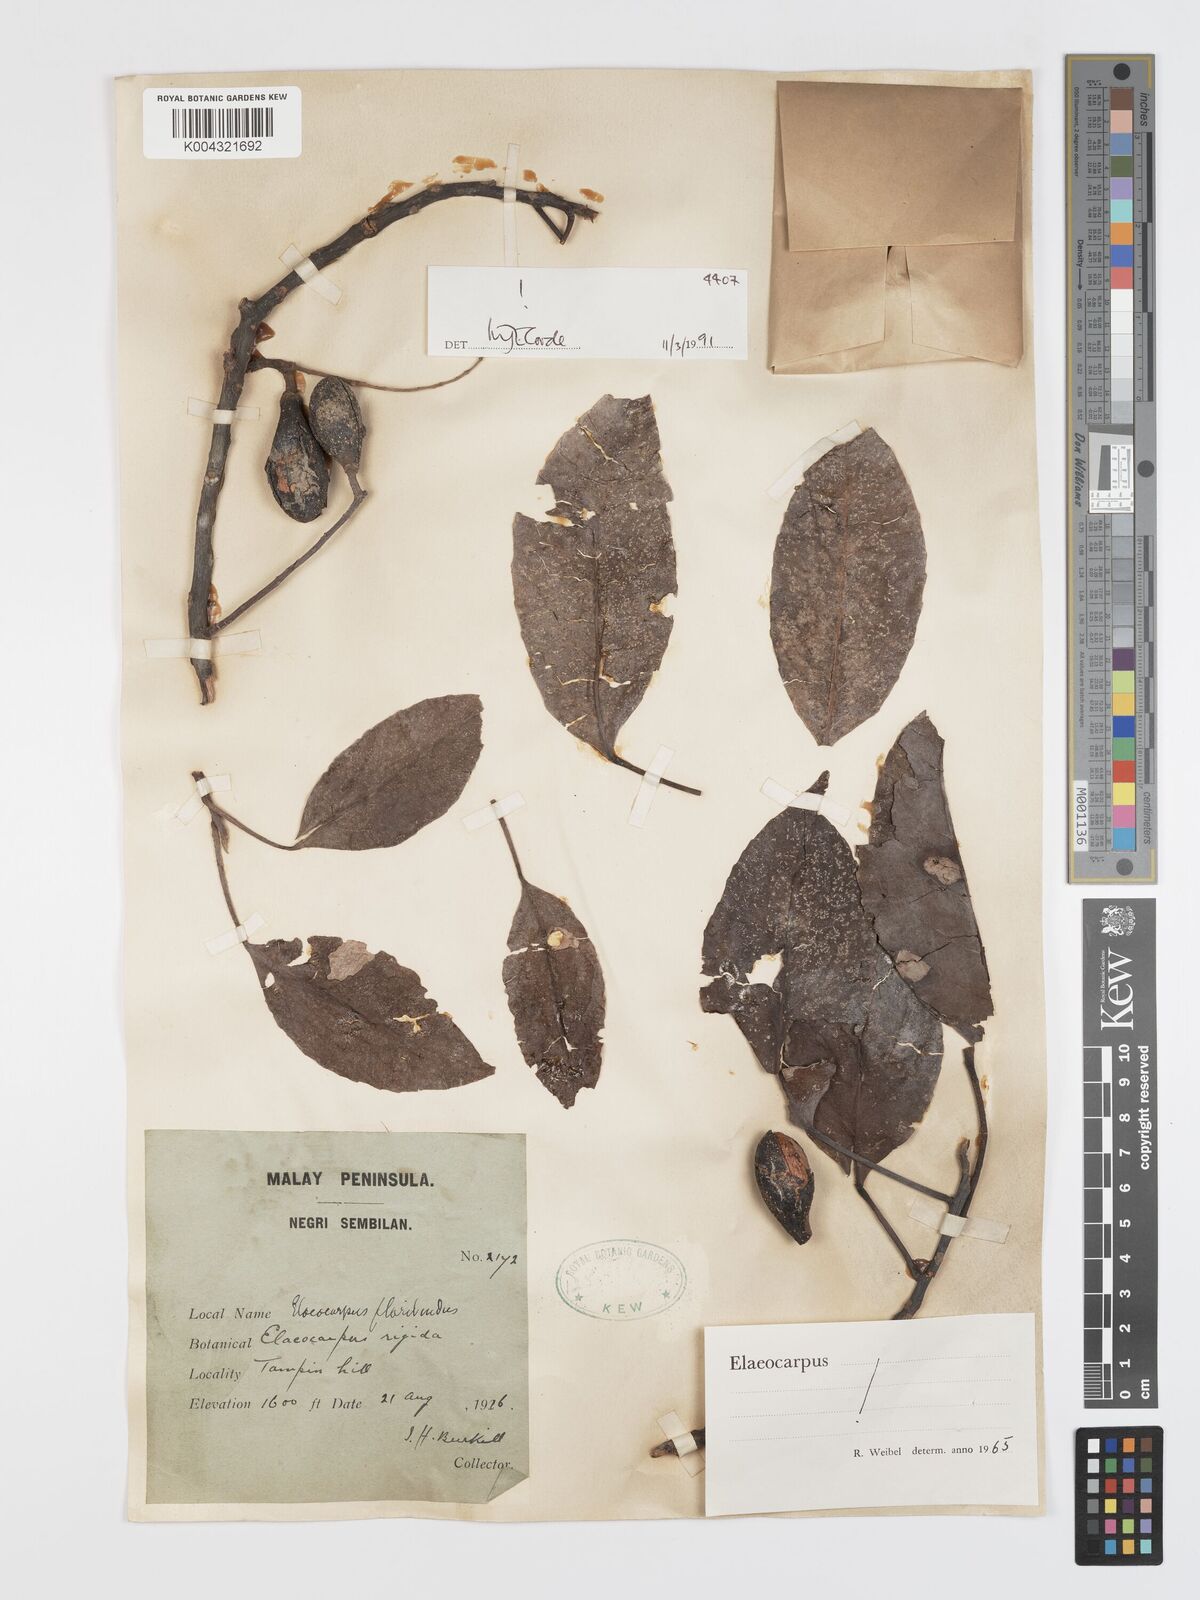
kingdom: Plantae
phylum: Tracheophyta
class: Magnoliopsida
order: Oxalidales
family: Elaeocarpaceae
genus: Elaeocarpus
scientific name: Elaeocarpus floribundus
